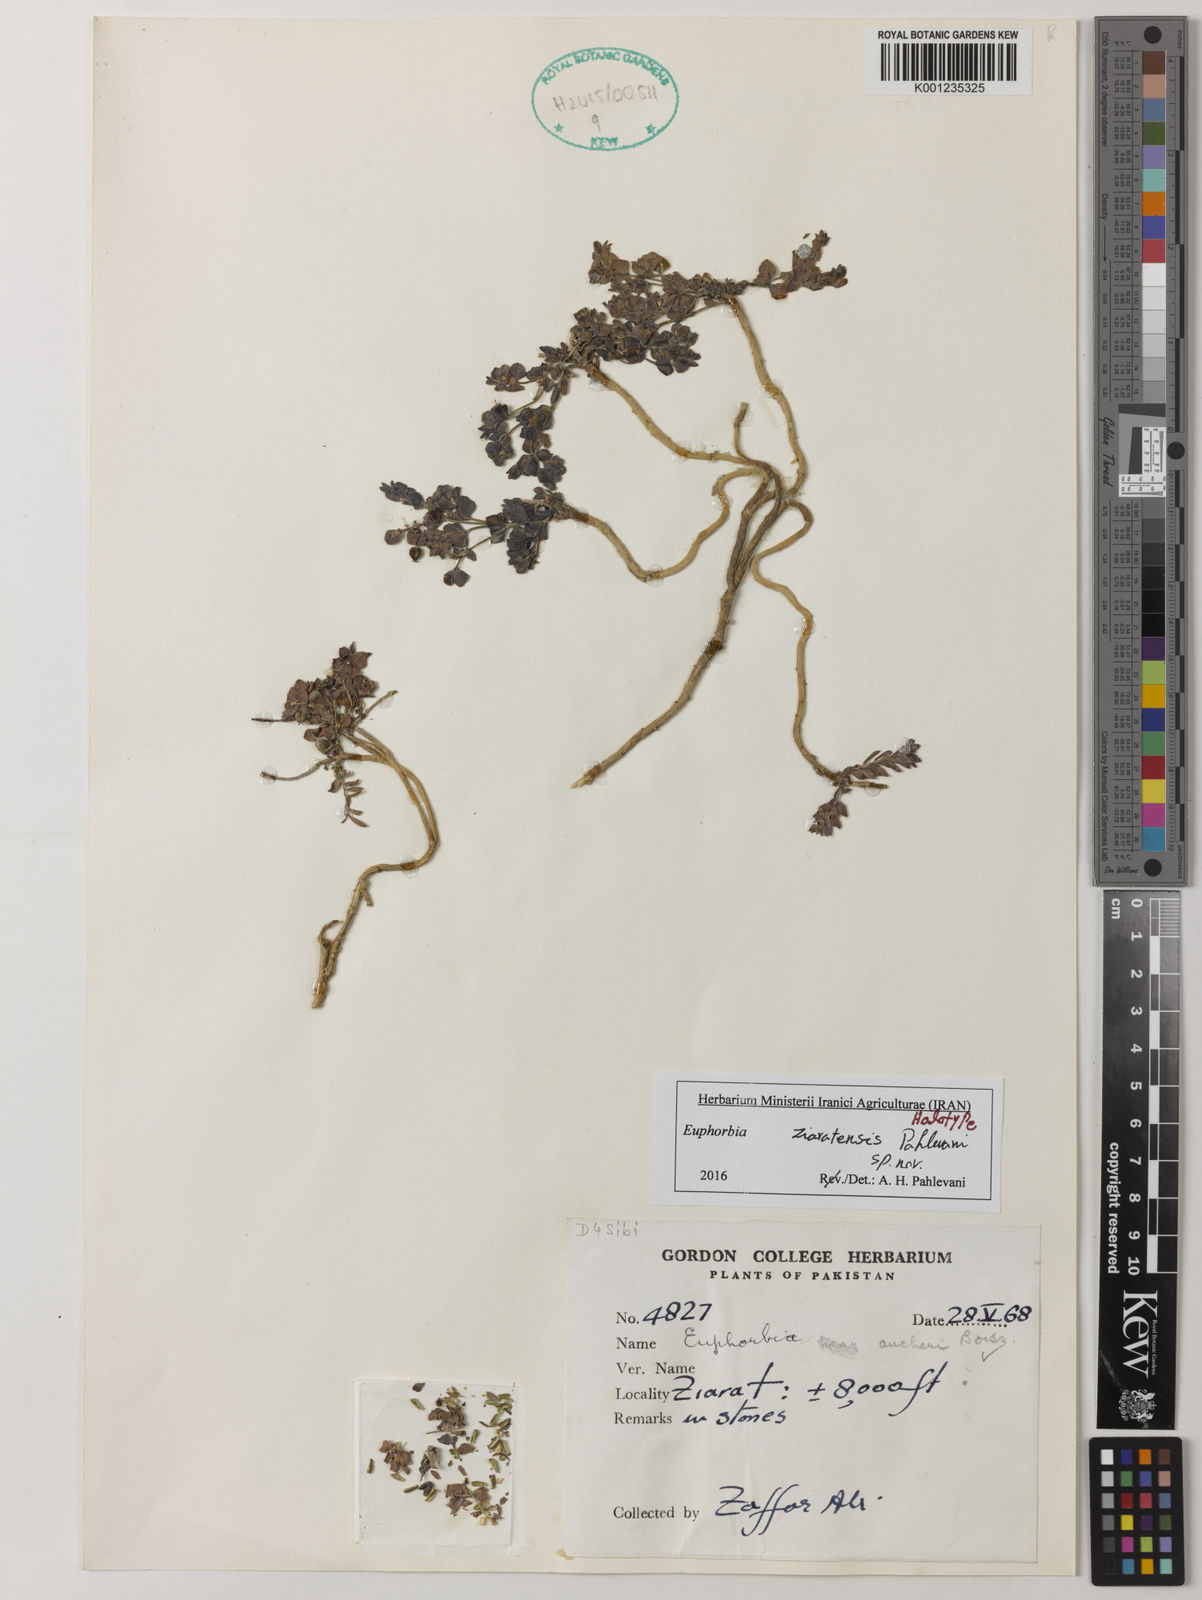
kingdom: Plantae
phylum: Tracheophyta
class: Magnoliopsida
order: Malpighiales
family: Euphorbiaceae
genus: Euphorbia
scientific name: Euphorbia ziaratensis
